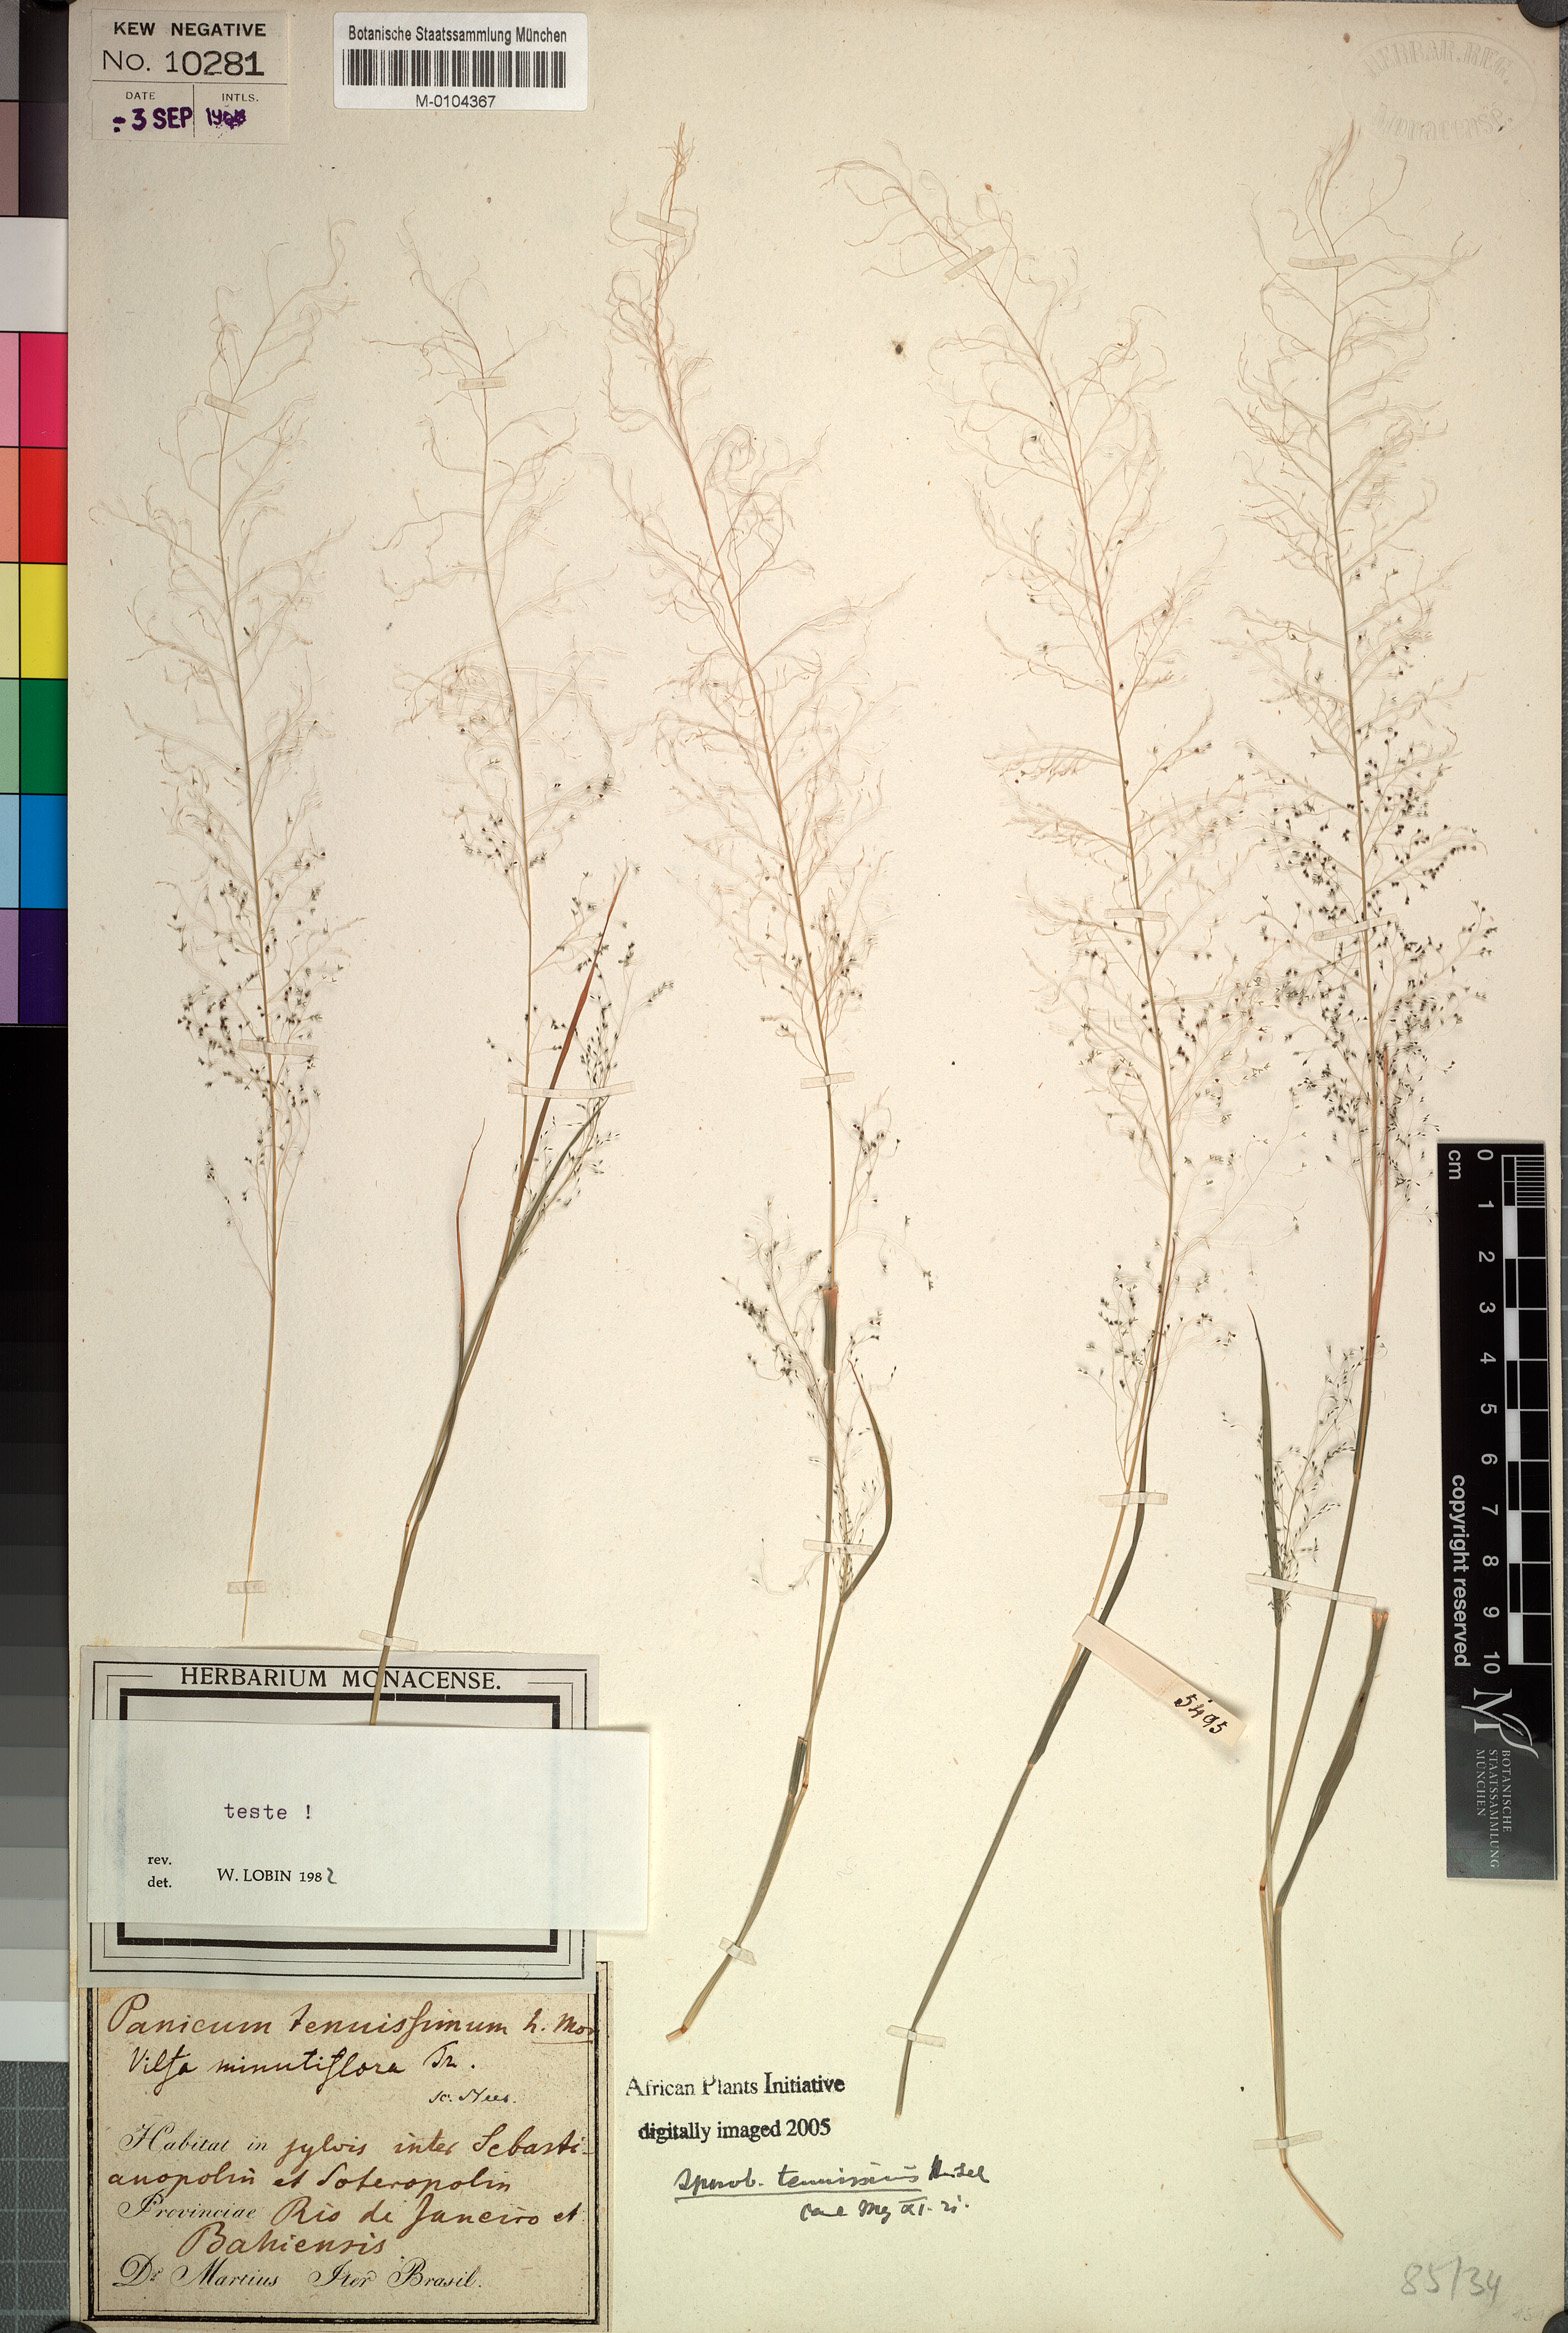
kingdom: Plantae
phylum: Tracheophyta
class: Liliopsida
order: Poales
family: Poaceae
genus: Sporobolus
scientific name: Sporobolus tenuissimus
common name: Tropical dropseed
